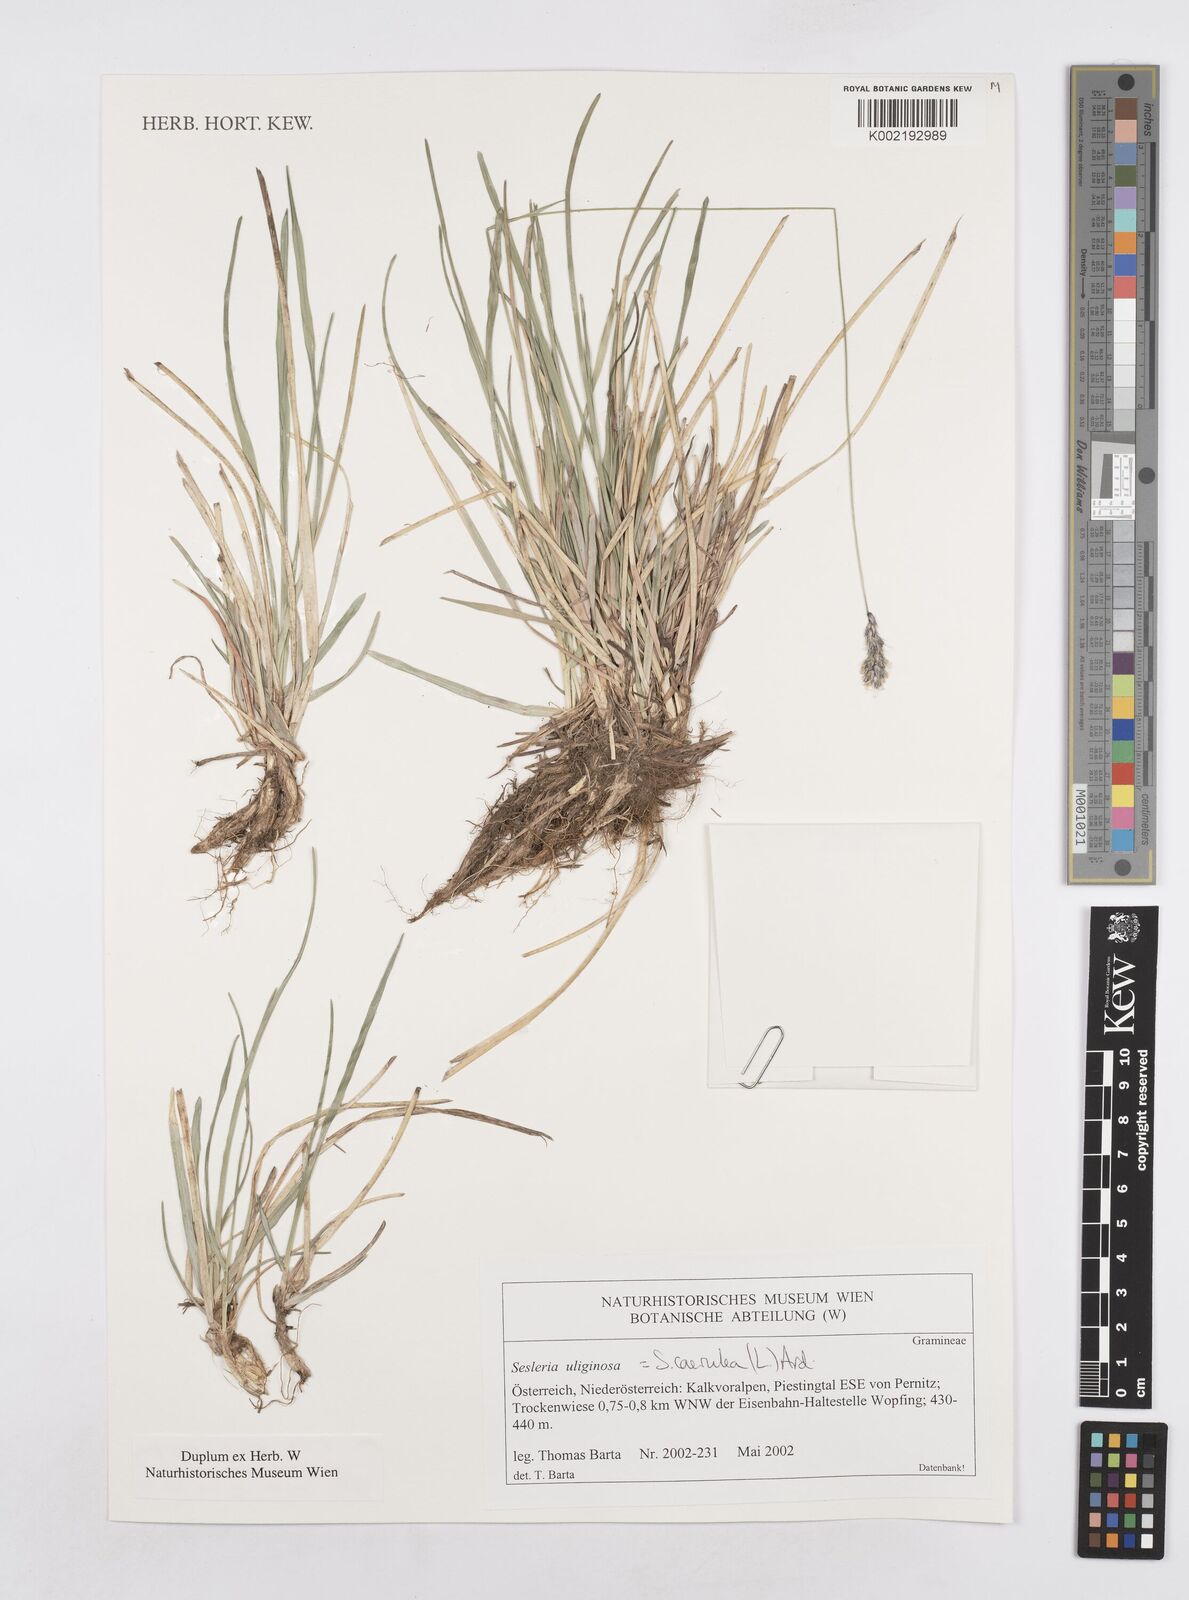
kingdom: Plantae
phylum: Tracheophyta
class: Liliopsida
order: Poales
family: Poaceae
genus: Sesleria
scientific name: Sesleria caerulea
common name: Blue moor-grass
